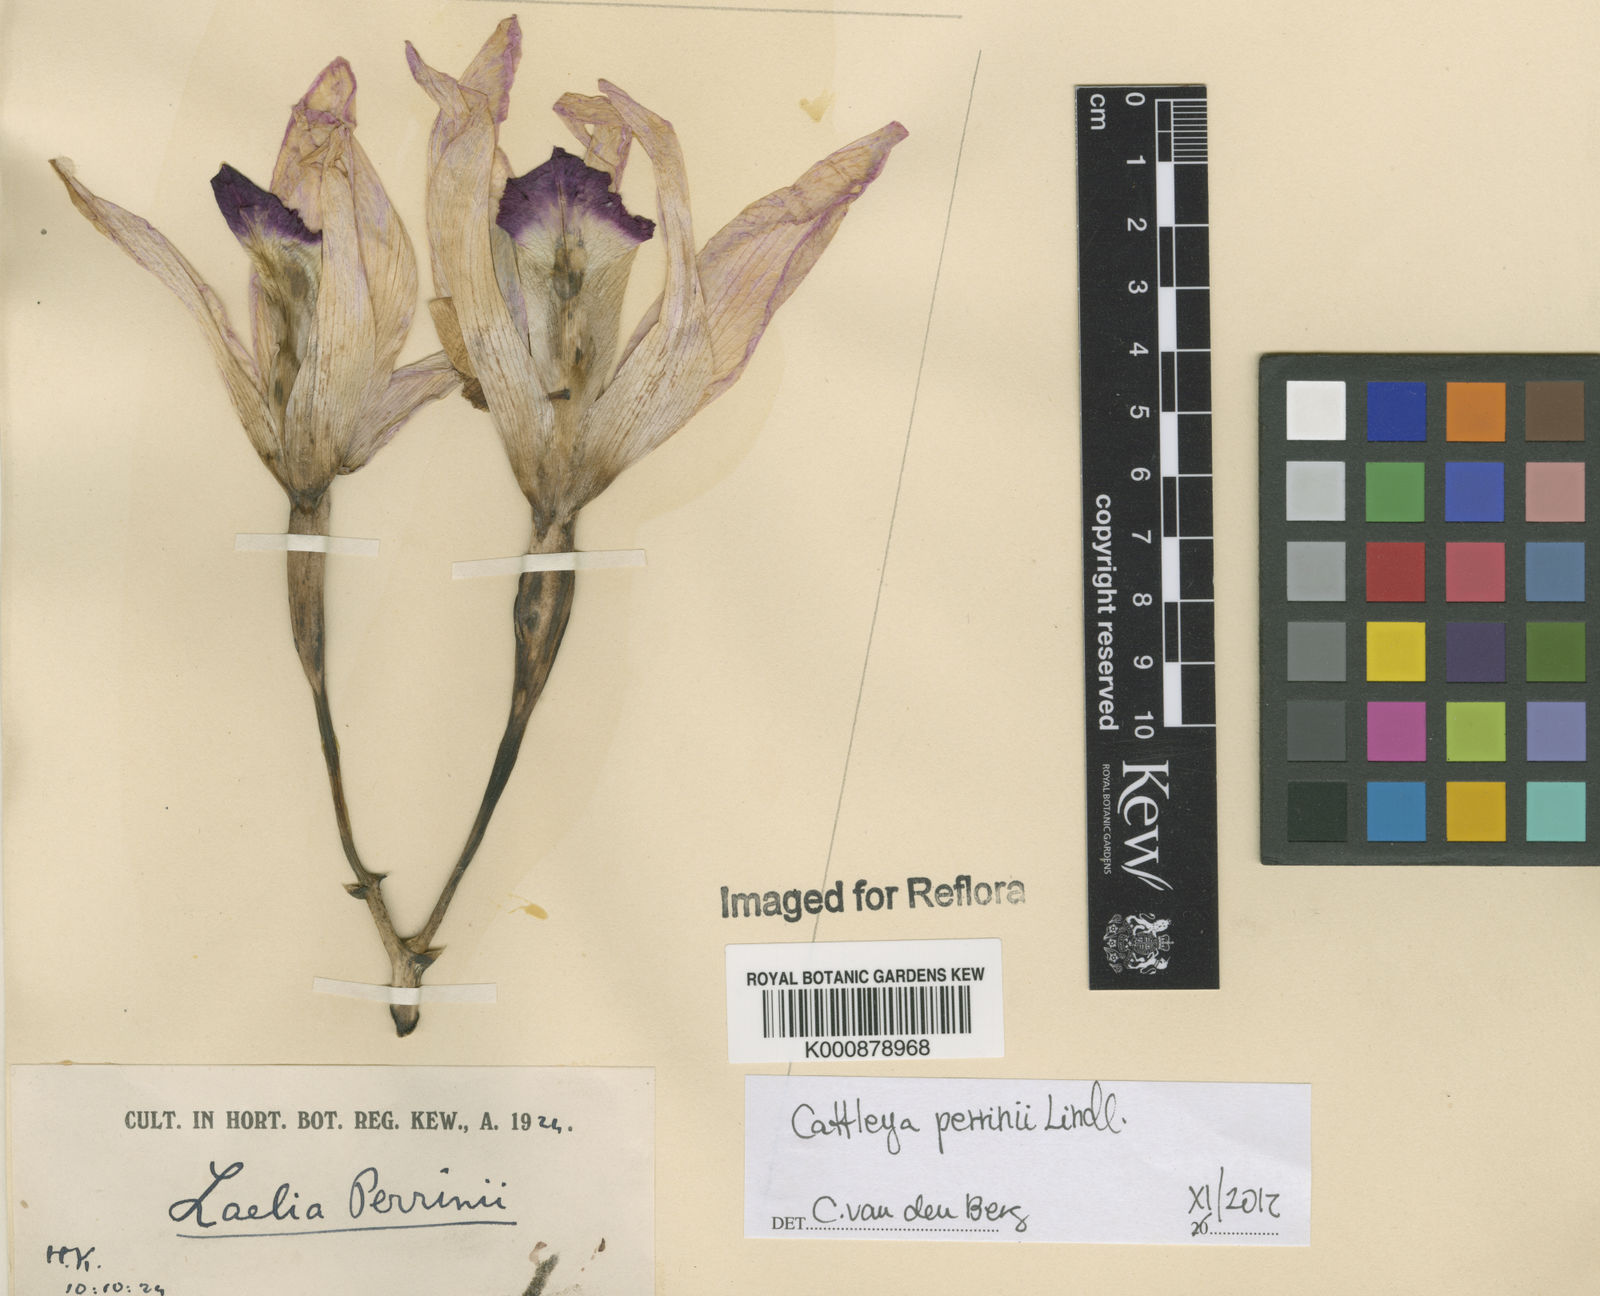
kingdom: Plantae
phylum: Tracheophyta
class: Liliopsida
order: Asparagales
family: Orchidaceae
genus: Cattleya
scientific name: Cattleya perrinii
